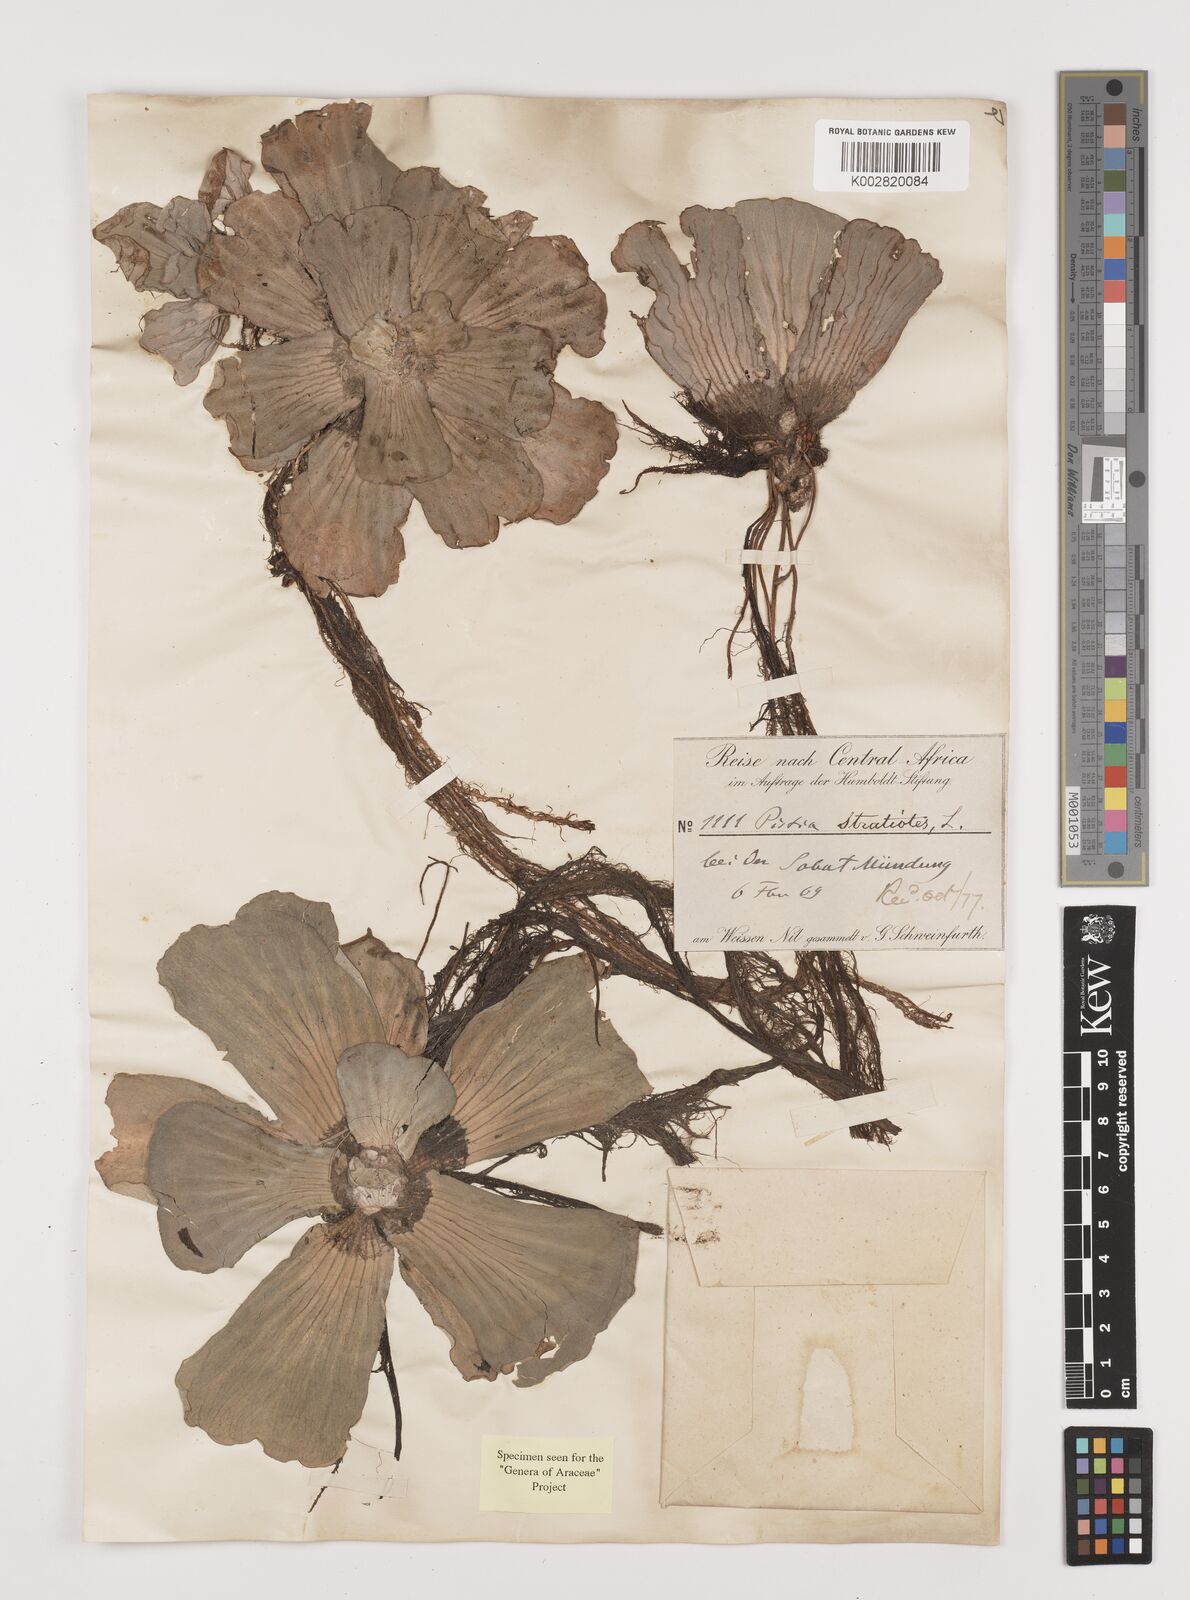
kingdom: Plantae
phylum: Tracheophyta
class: Liliopsida
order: Alismatales
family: Araceae
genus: Pistia
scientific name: Pistia stratiotes
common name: Water lettuce
